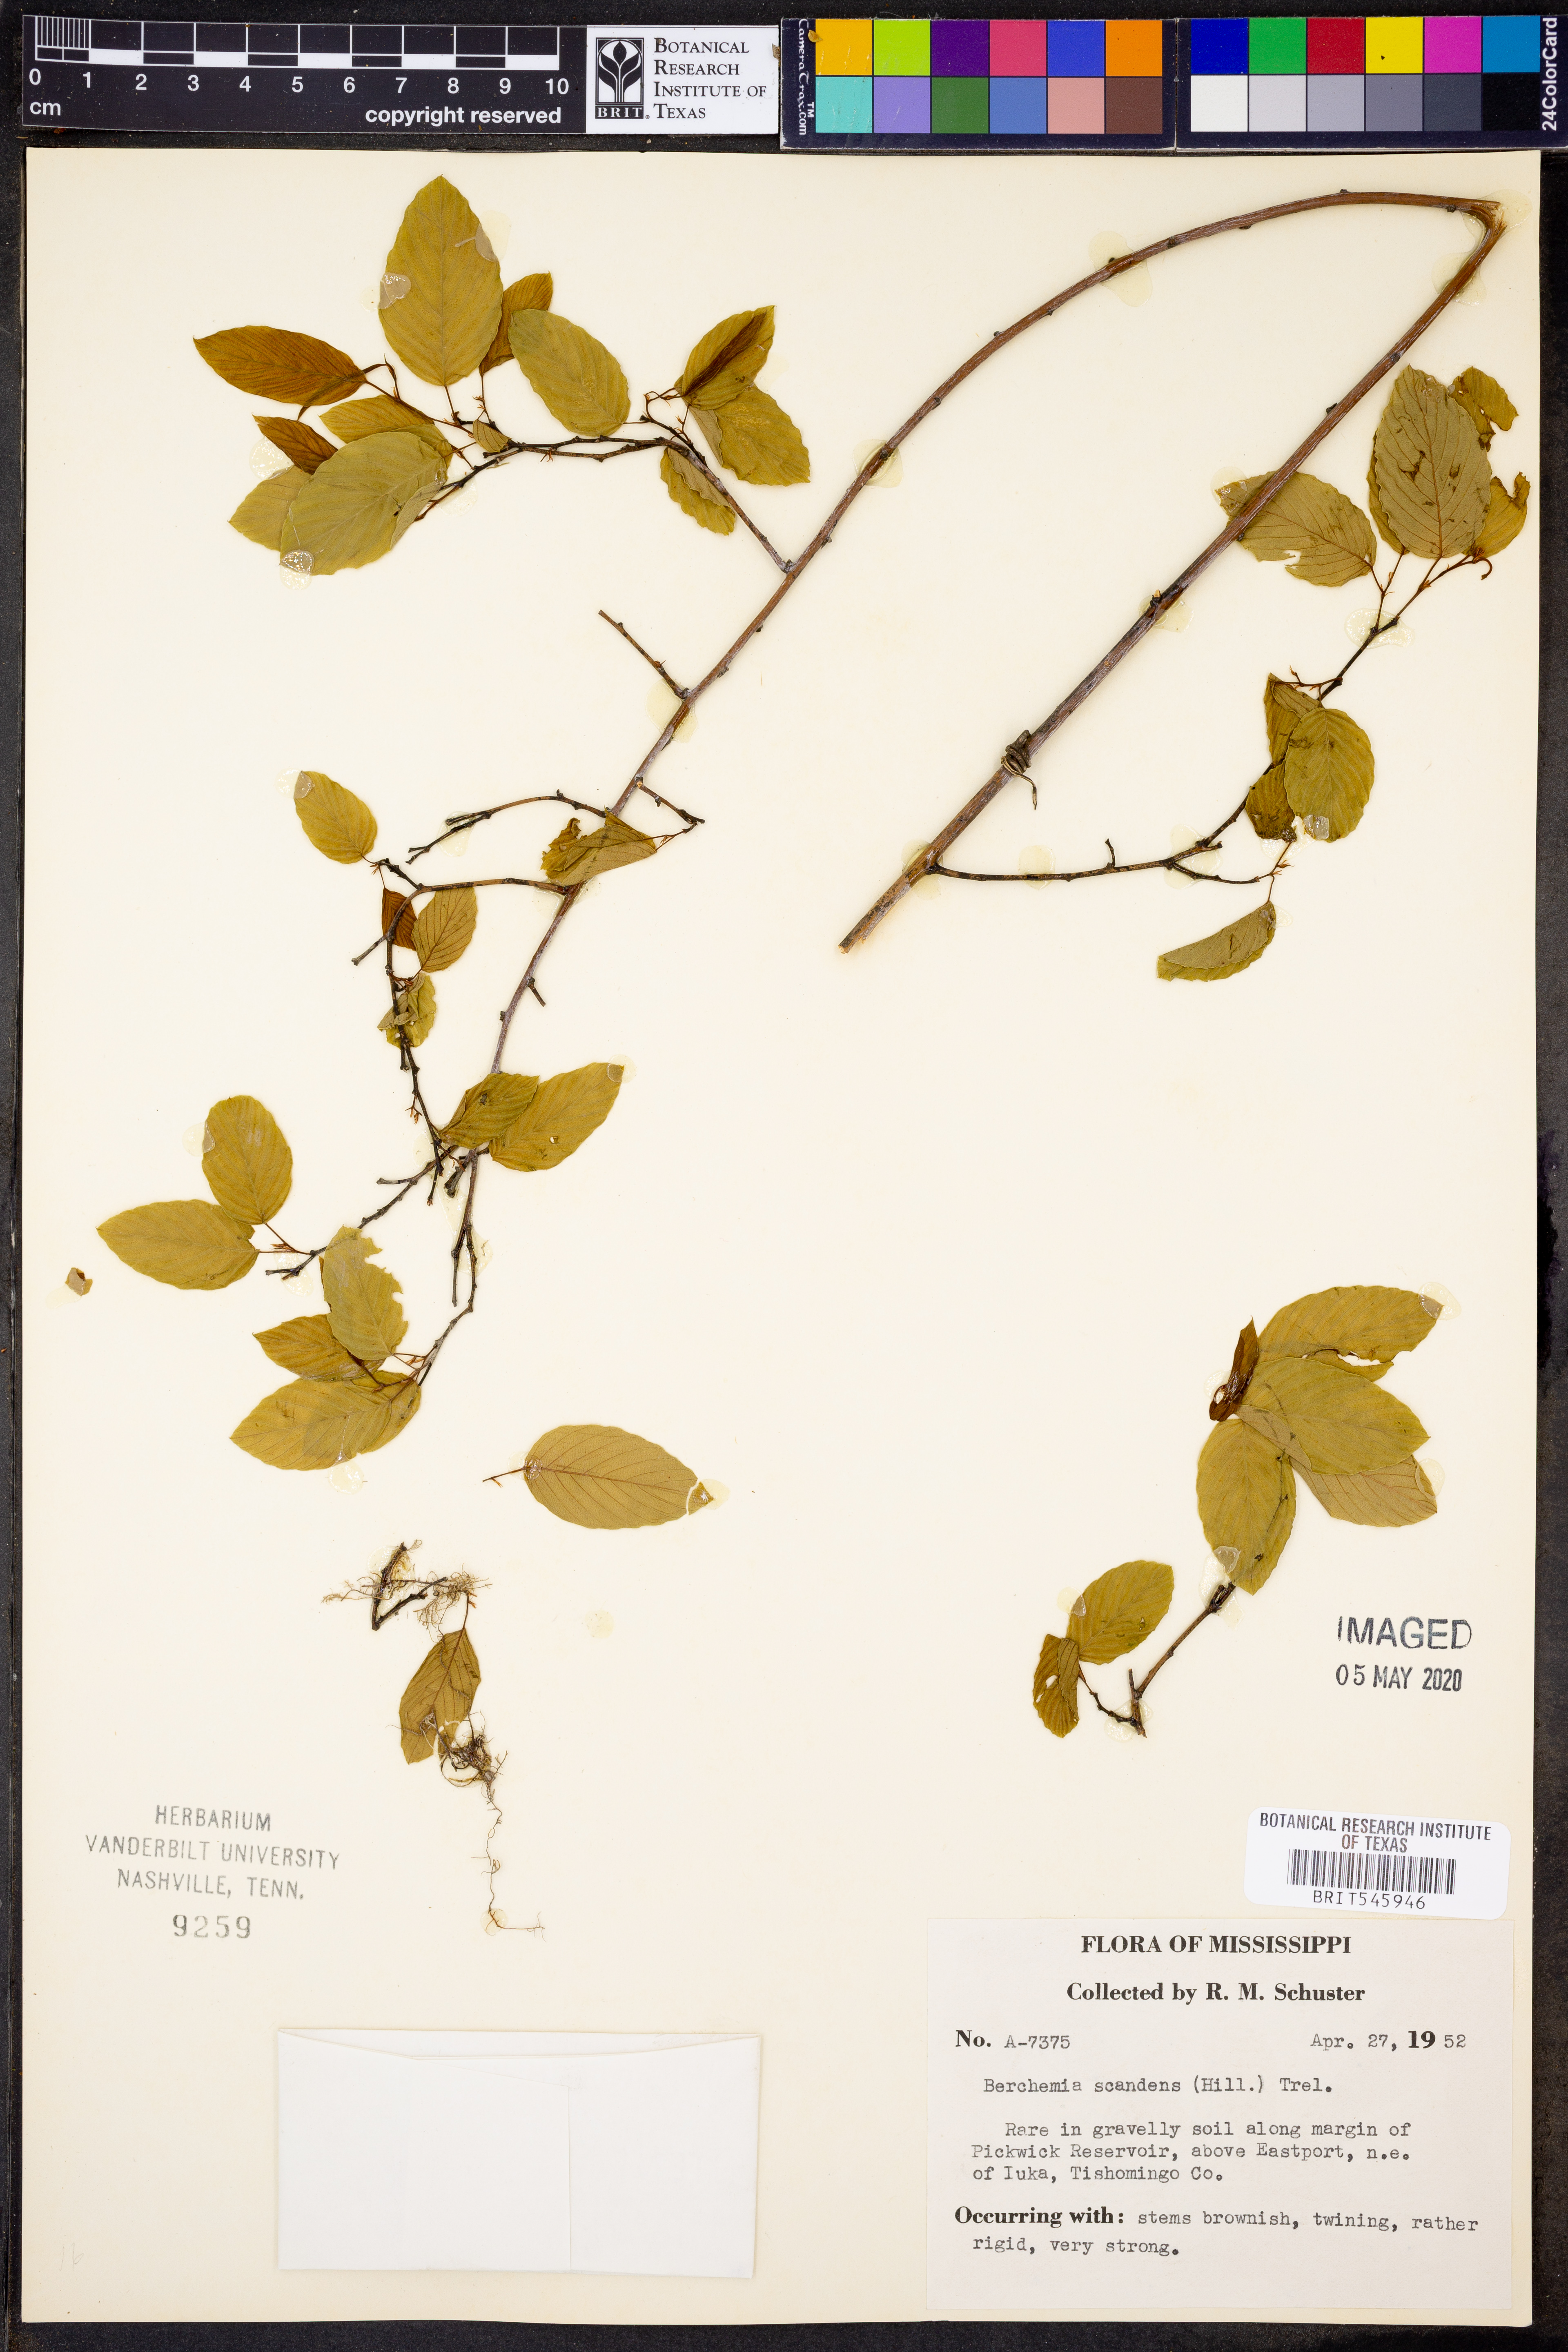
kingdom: Plantae
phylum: Tracheophyta
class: Magnoliopsida
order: Rosales
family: Rhamnaceae
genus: Berchemia
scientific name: Berchemia scandens
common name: Supplejack
